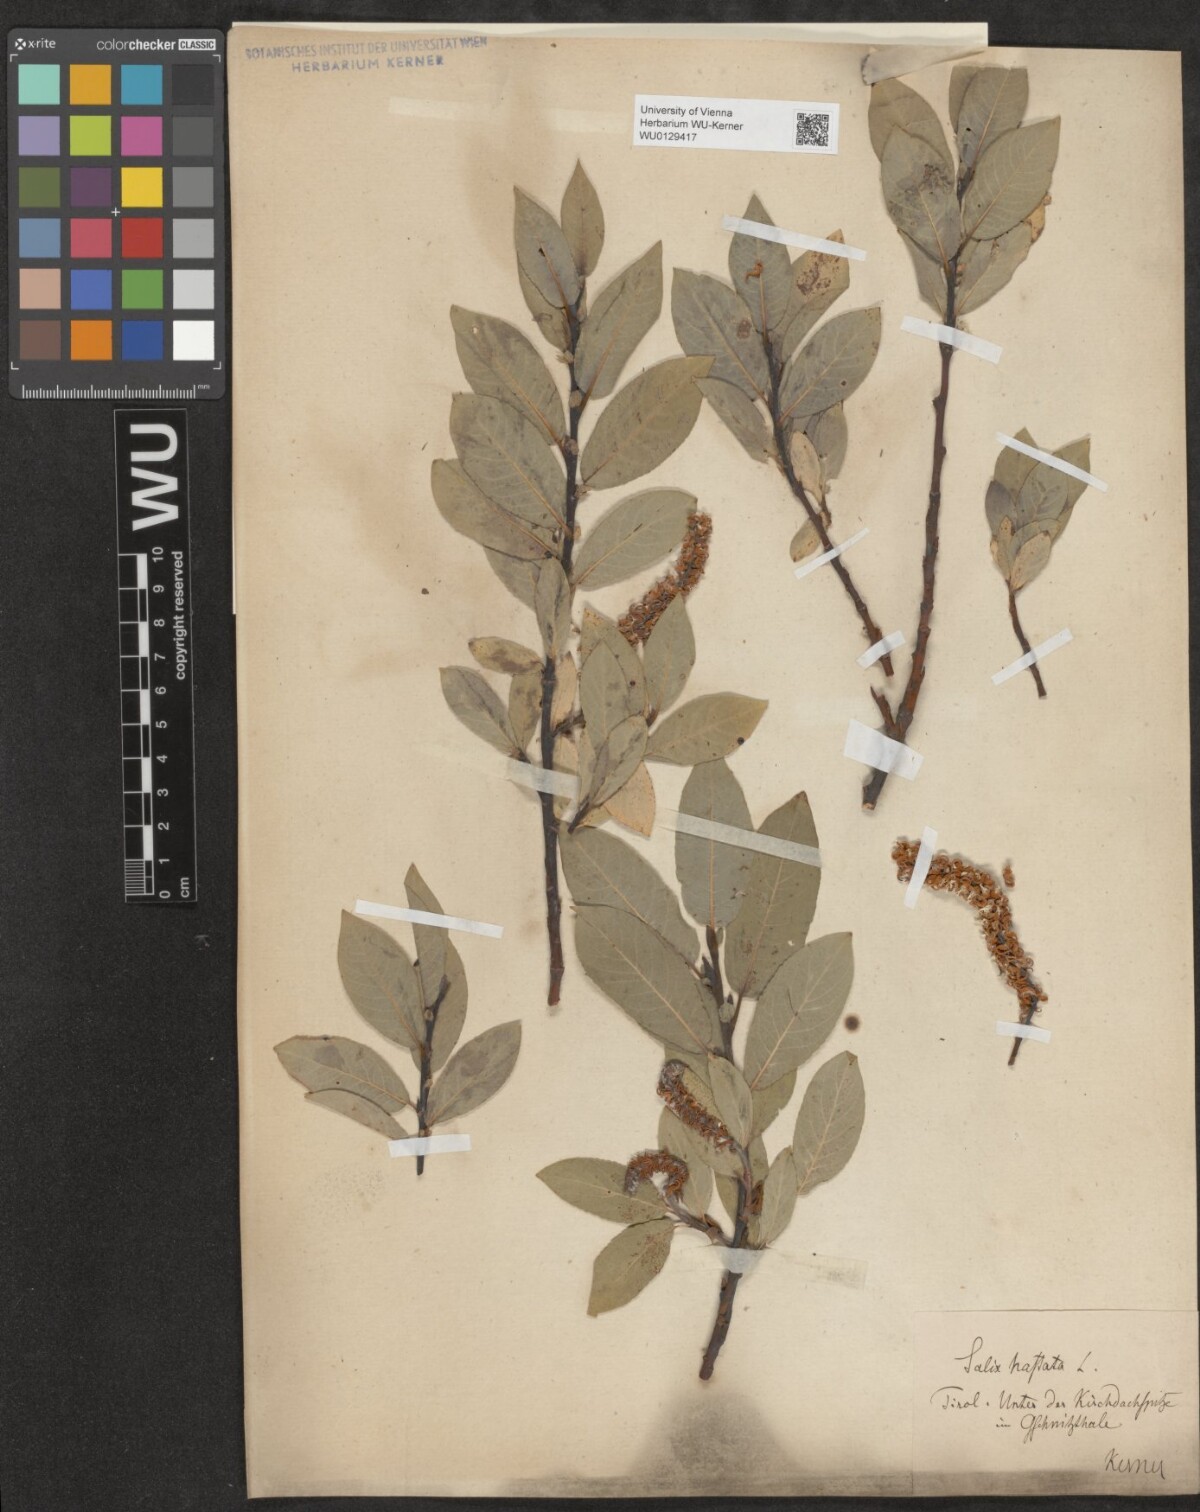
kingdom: Plantae
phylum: Tracheophyta
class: Magnoliopsida
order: Malpighiales
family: Salicaceae
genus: Salix
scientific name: Salix hastata
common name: Halberd willow
